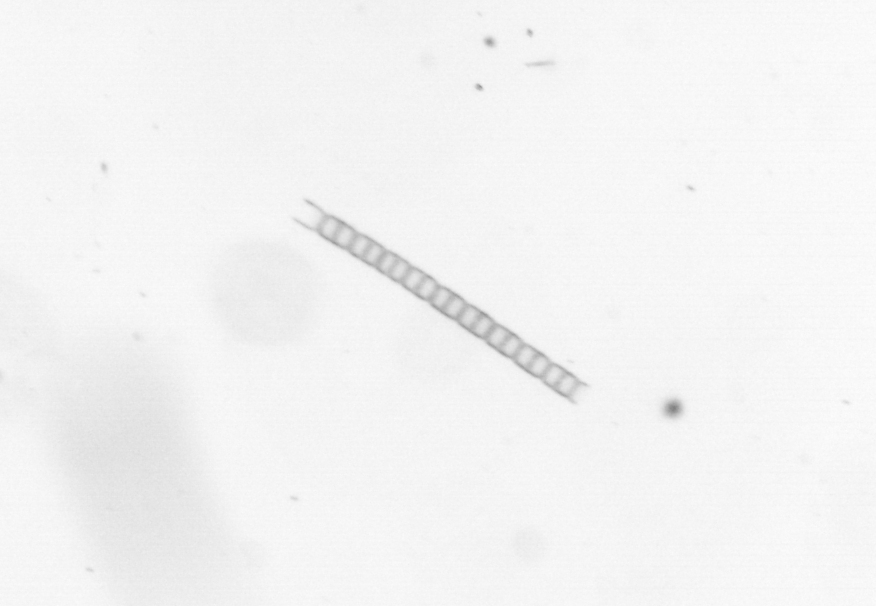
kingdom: Chromista
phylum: Ochrophyta
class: Bacillariophyceae
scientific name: Bacillariophyceae
